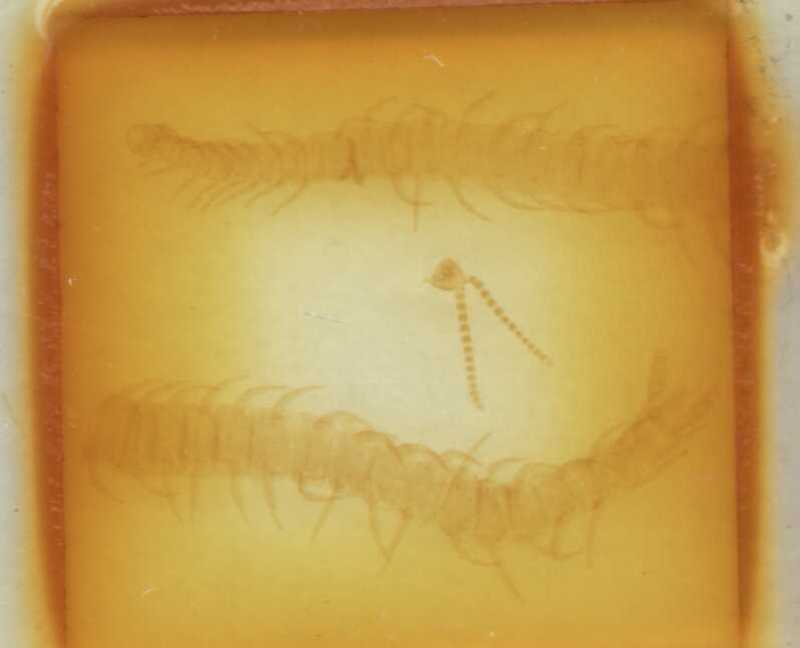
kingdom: Animalia
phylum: Arthropoda
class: Chilopoda
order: Geophilomorpha
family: Linotaeniidae
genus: Strigamia
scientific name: Strigamia acuminata
